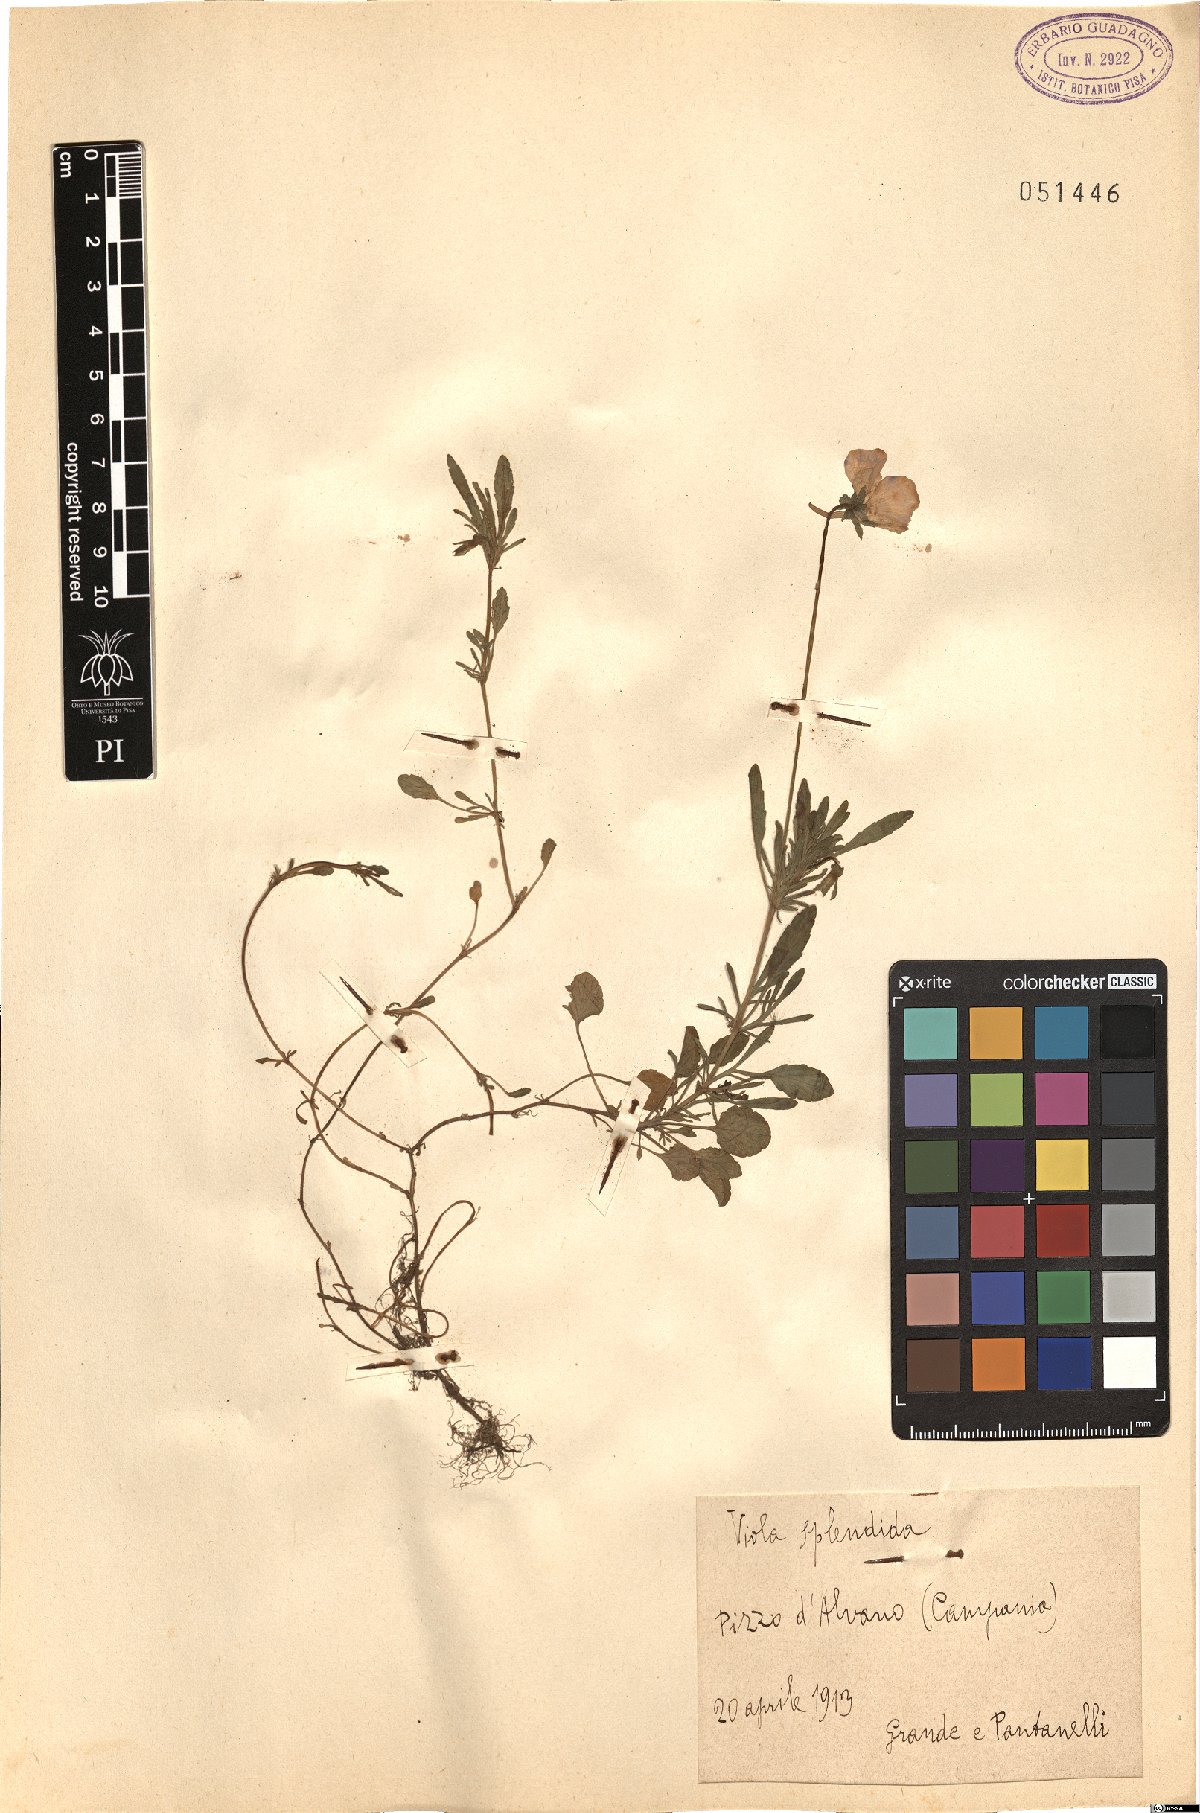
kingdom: Plantae
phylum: Tracheophyta
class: Magnoliopsida
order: Malpighiales
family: Violaceae
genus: Viola
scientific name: Viola aethnensis
